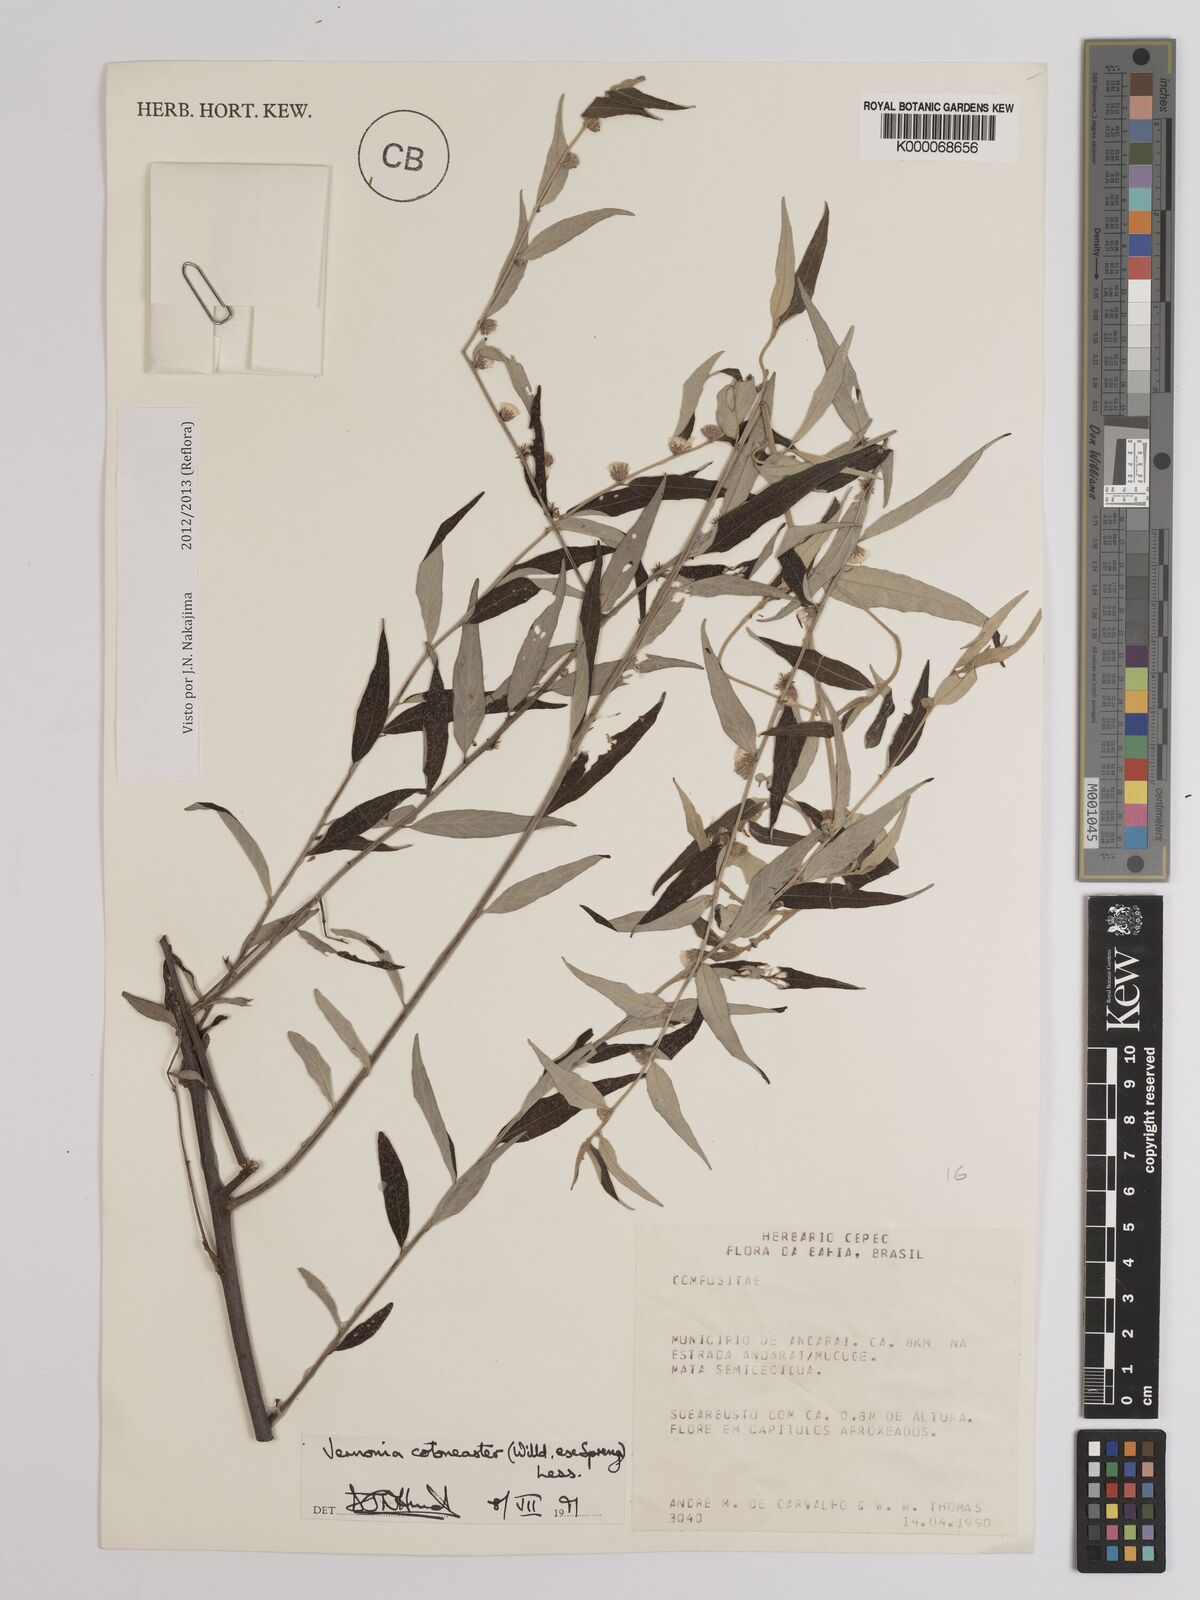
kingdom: Plantae
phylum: Tracheophyta
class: Magnoliopsida
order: Asterales
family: Asteraceae
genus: Lepidaploa
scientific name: Lepidaploa cotoneaster
